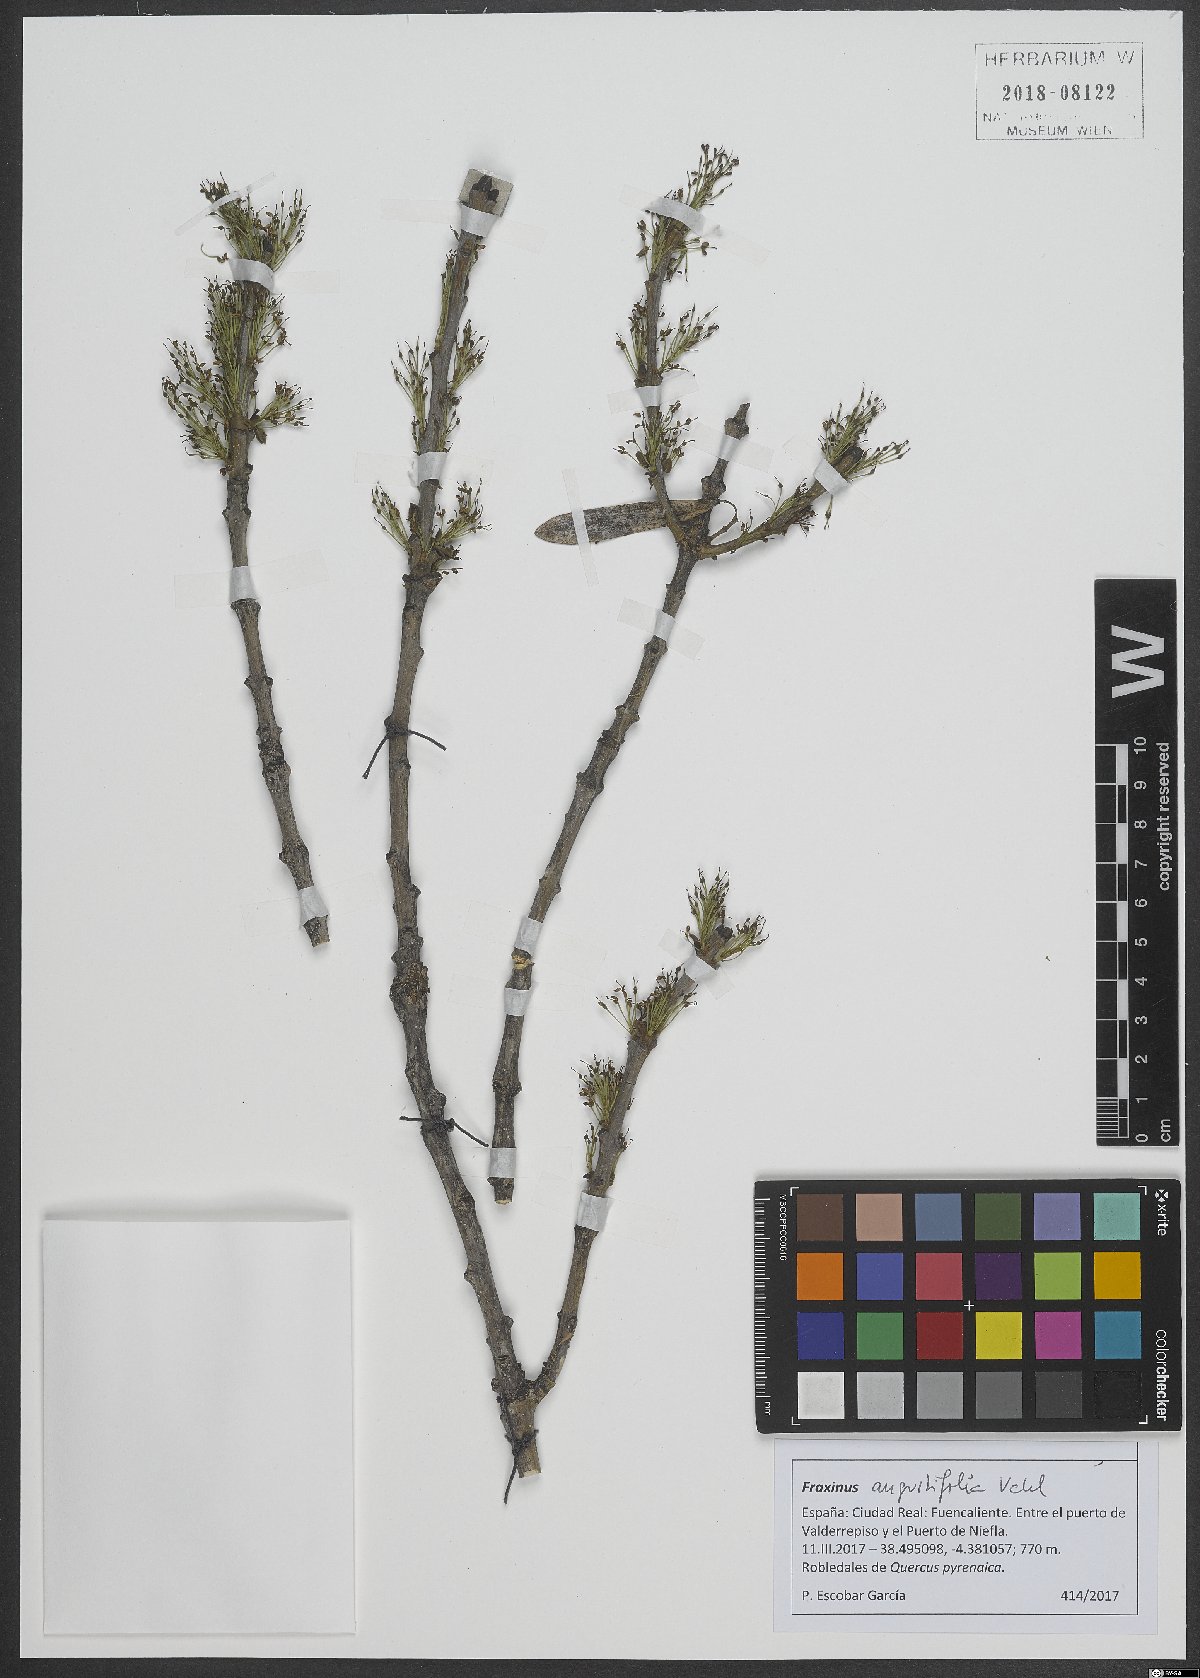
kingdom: Plantae
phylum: Tracheophyta
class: Magnoliopsida
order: Lamiales
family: Oleaceae
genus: Fraxinus
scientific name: Fraxinus angustifolia
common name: Narrow-leafed ash
